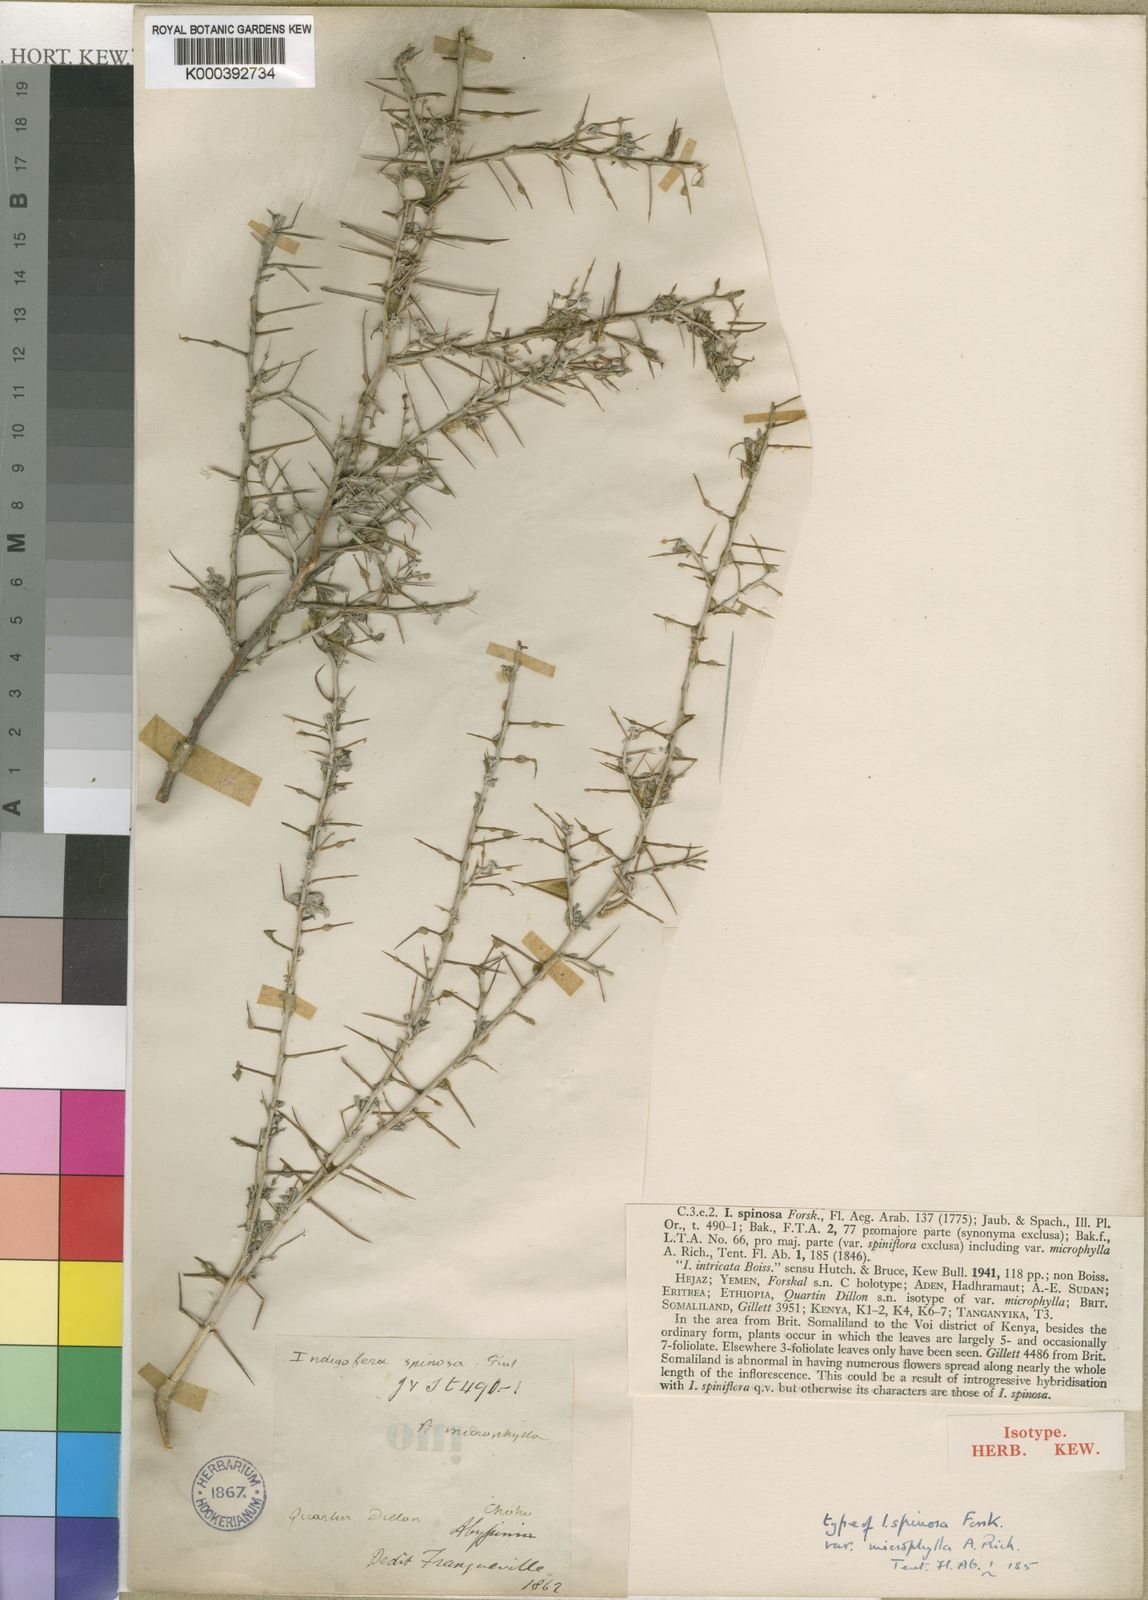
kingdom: Plantae
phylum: Tracheophyta
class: Magnoliopsida
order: Fabales
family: Fabaceae
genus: Indigofera
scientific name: Indigofera spinosa
